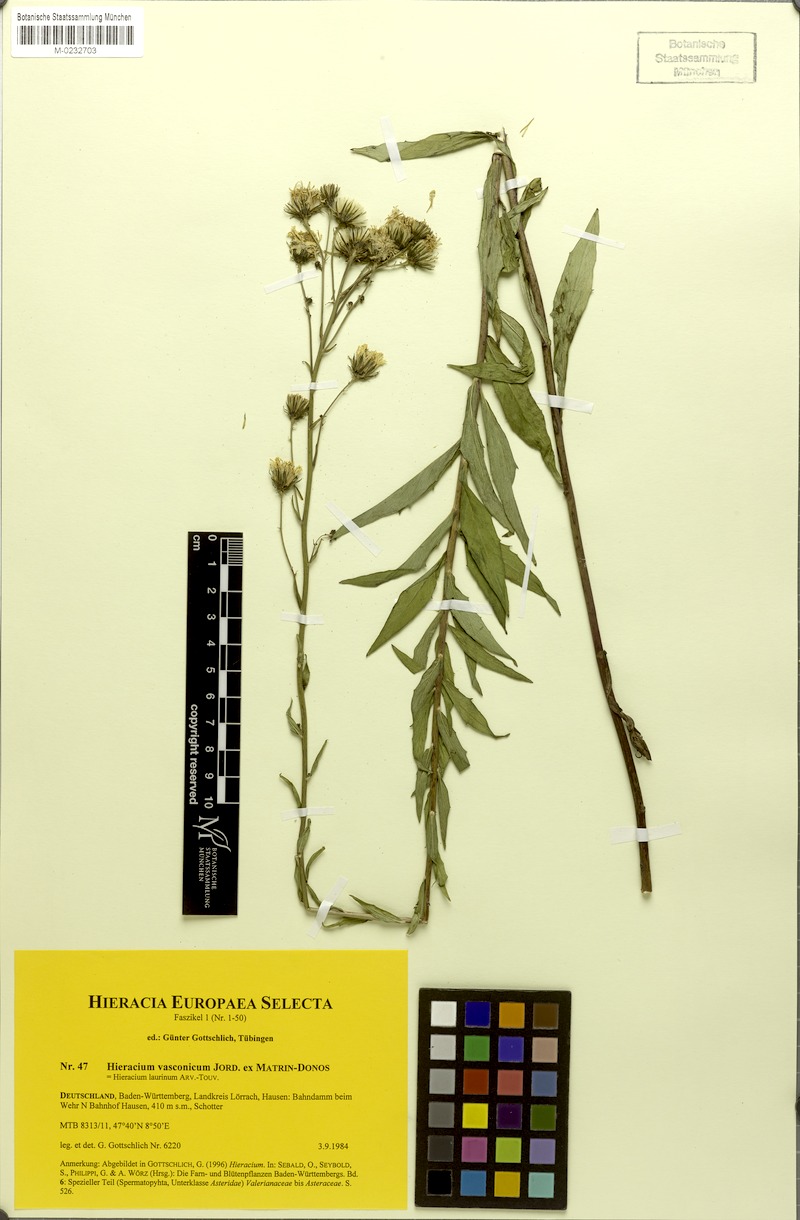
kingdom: Plantae
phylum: Tracheophyta
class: Magnoliopsida
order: Asterales
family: Asteraceae
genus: Hieracium
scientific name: Hieracium vasconicum
